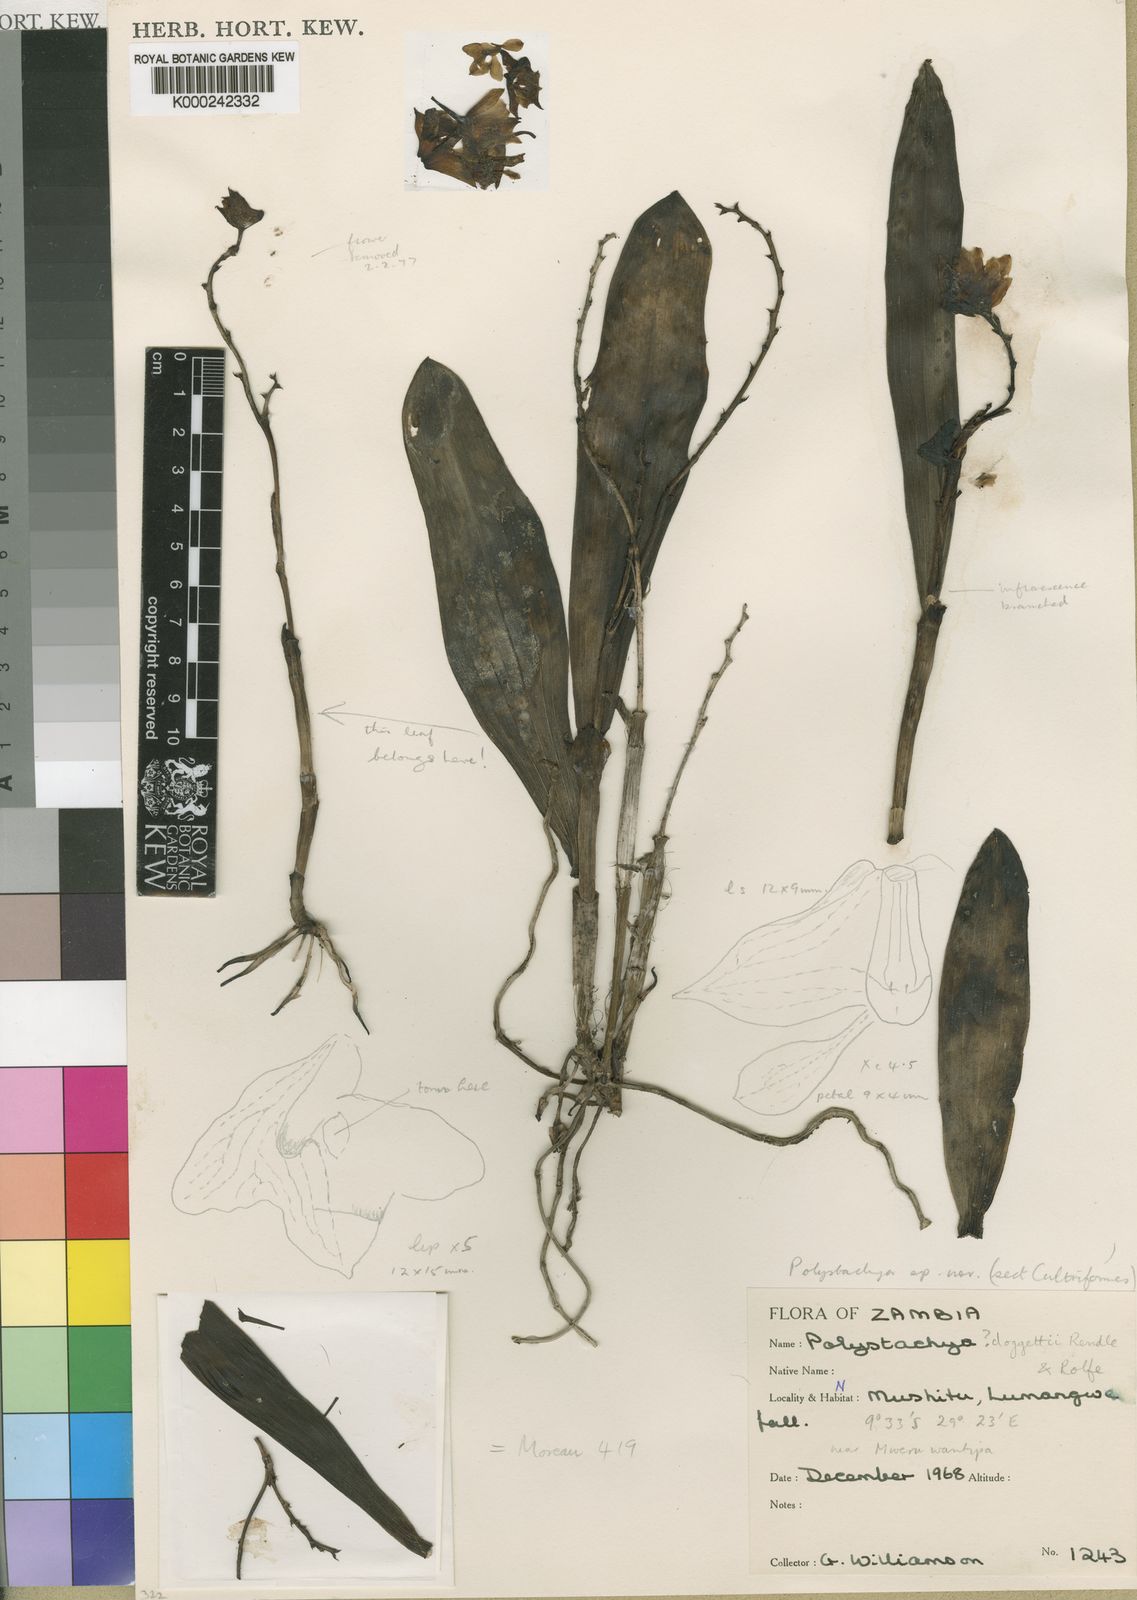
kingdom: Plantae
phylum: Tracheophyta
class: Liliopsida
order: Asparagales
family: Orchidaceae
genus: Polystachya
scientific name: Polystachya moreauae
